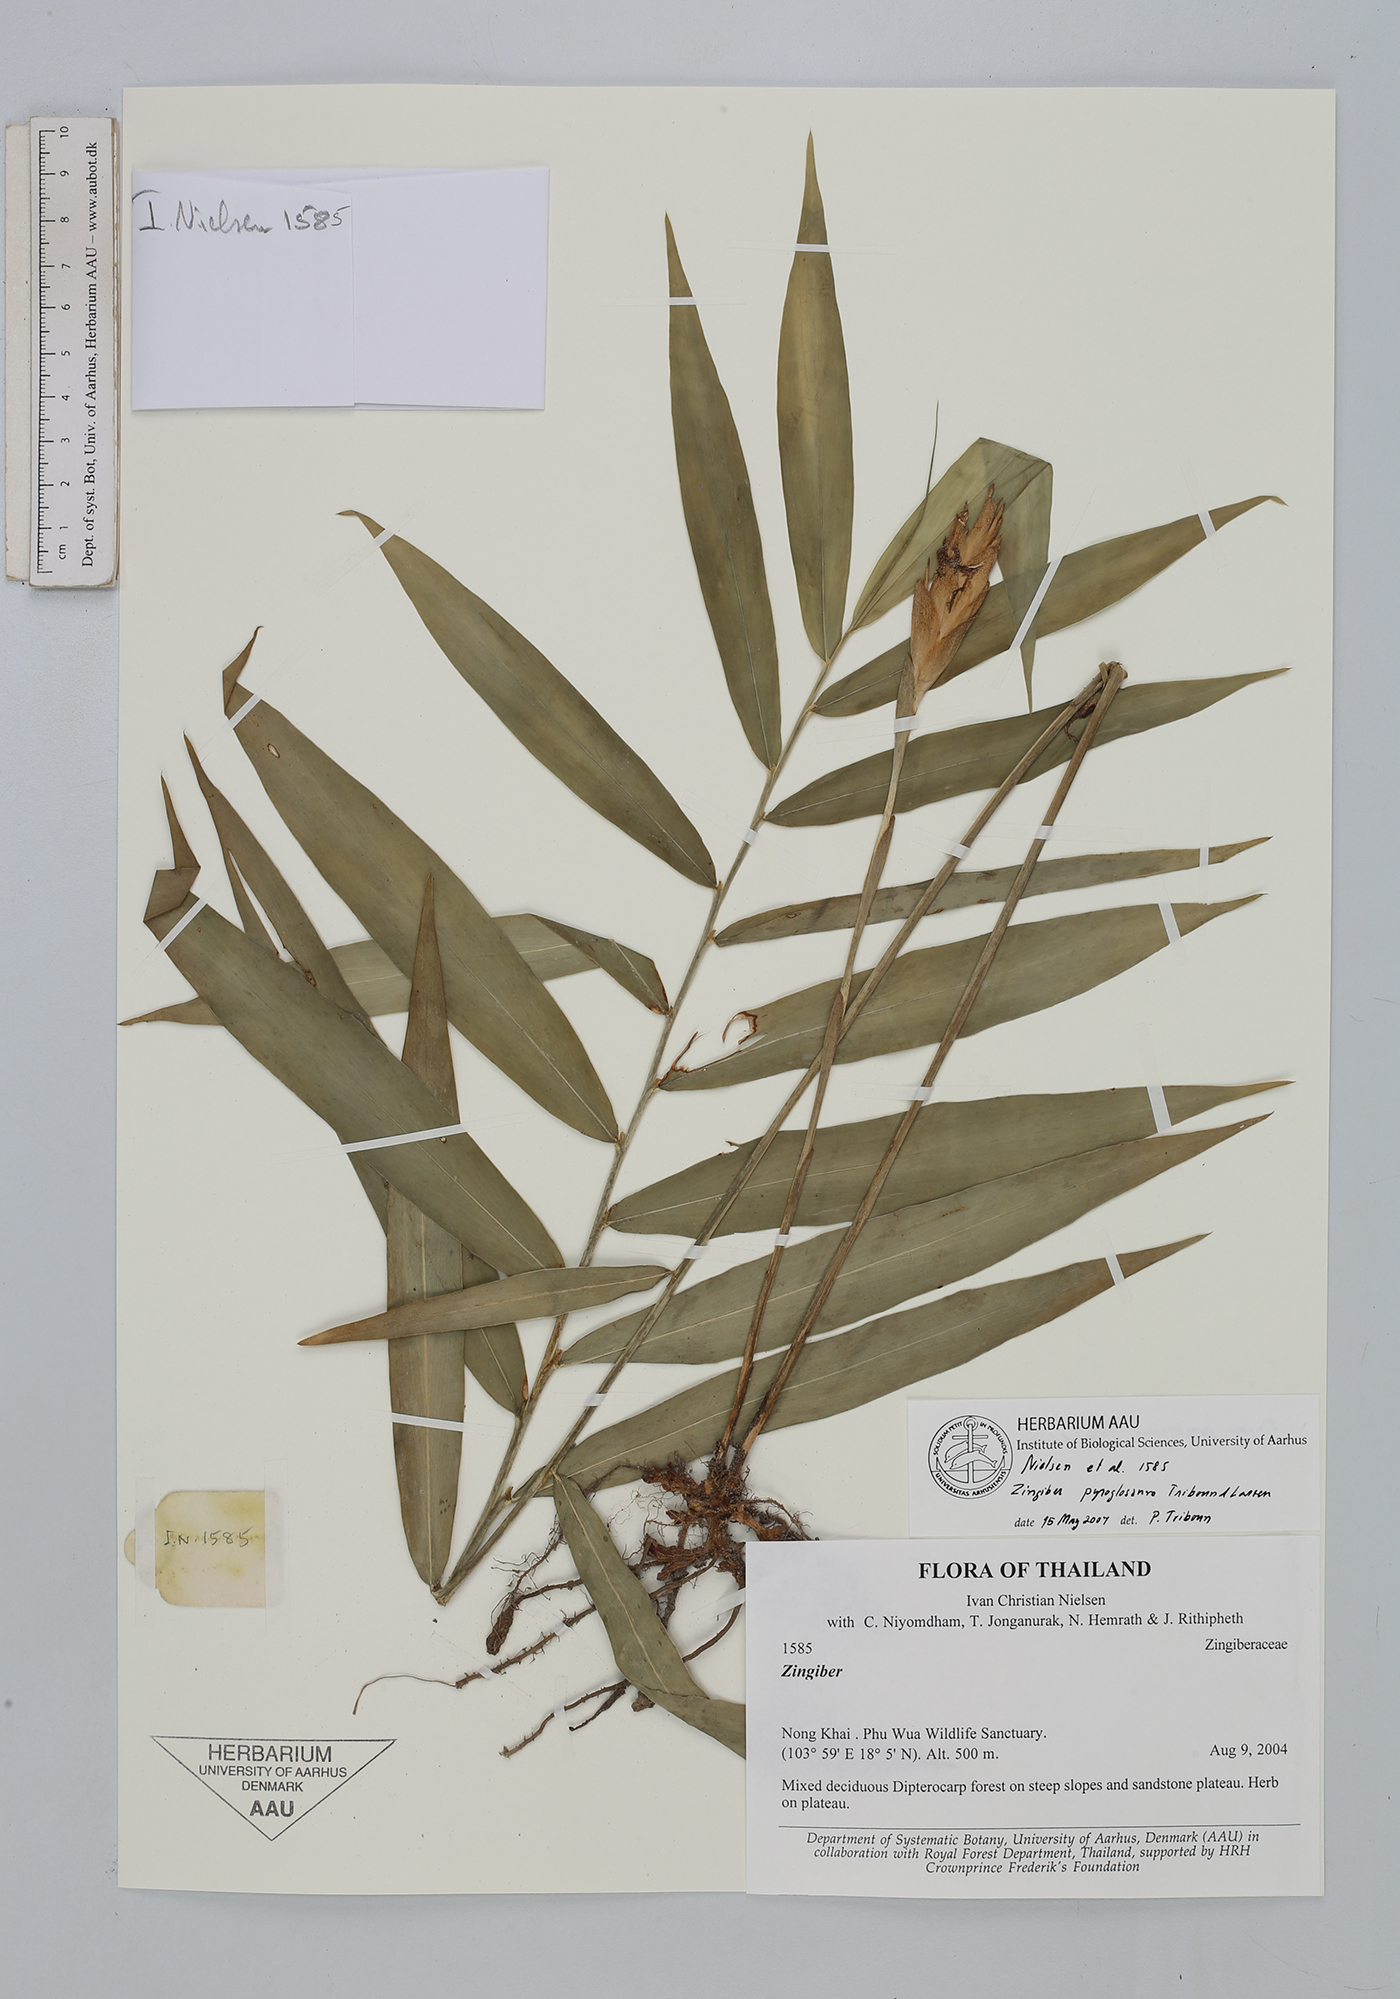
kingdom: Plantae
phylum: Tracheophyta
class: Liliopsida
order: Zingiberales
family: Zingiberaceae
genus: Zingiber
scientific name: Zingiber pyroglossum
